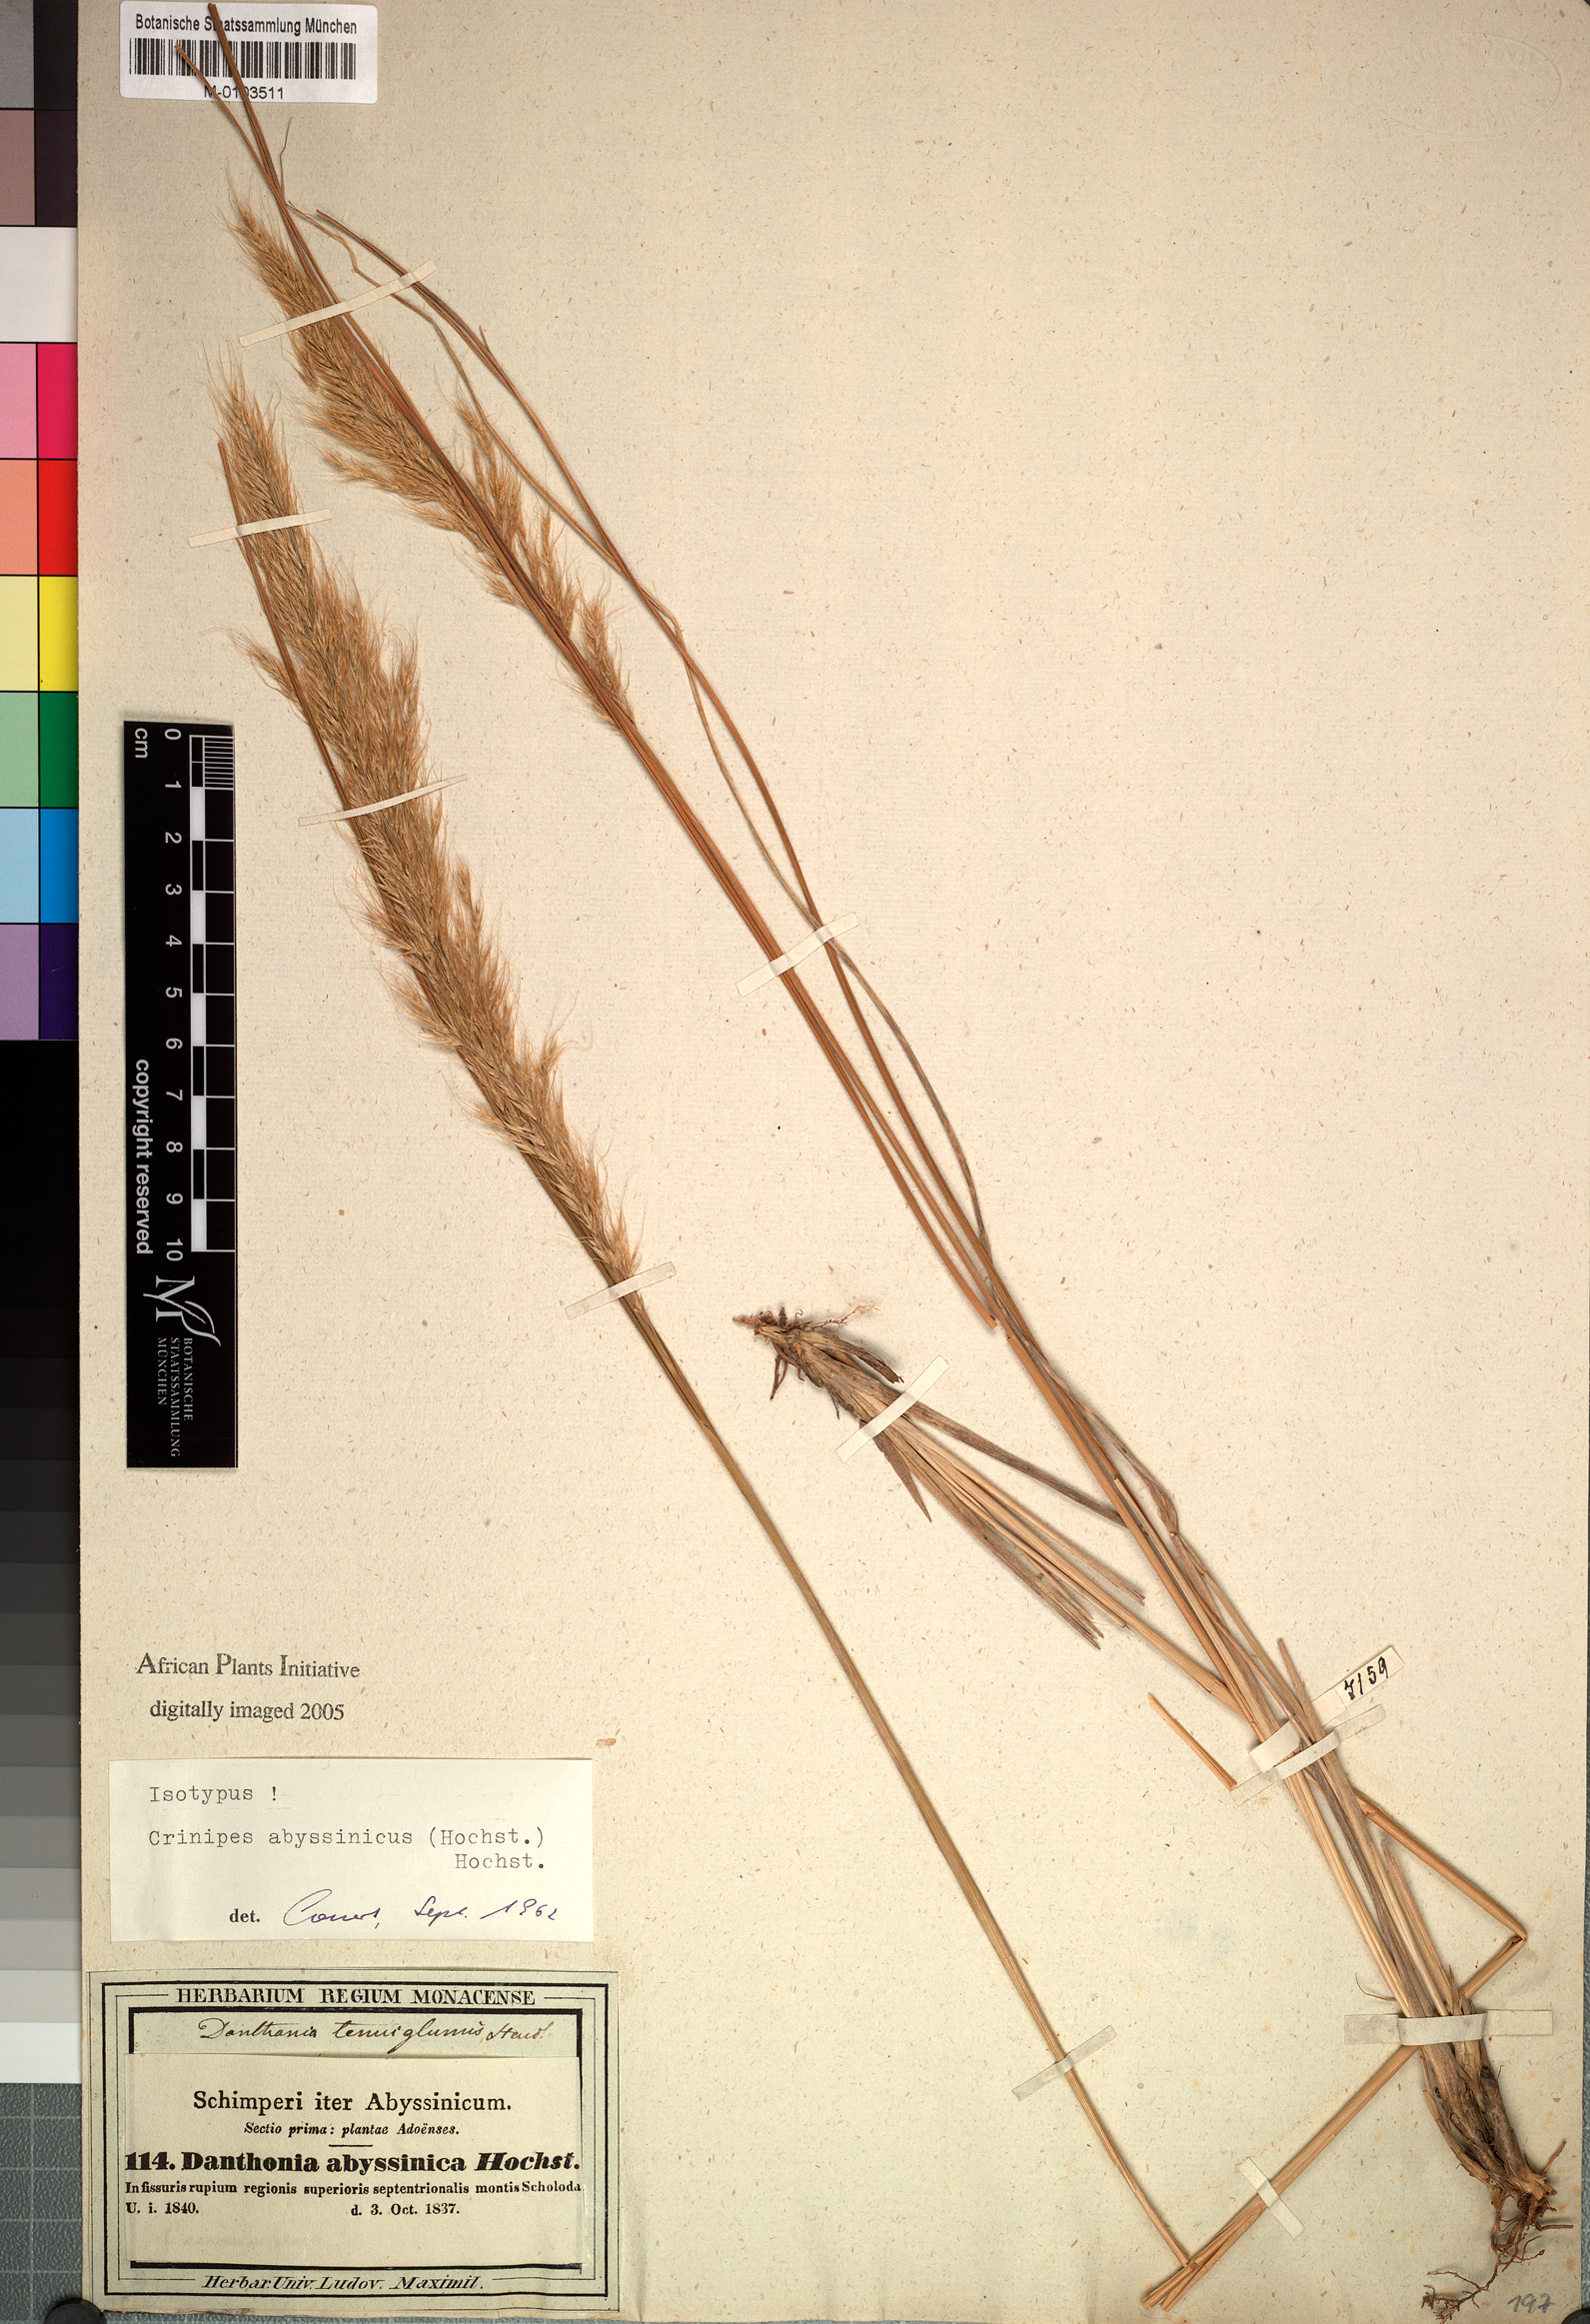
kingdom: Plantae
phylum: Tracheophyta
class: Liliopsida
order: Poales
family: Poaceae
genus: Crinipes
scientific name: Crinipes abyssinicus
